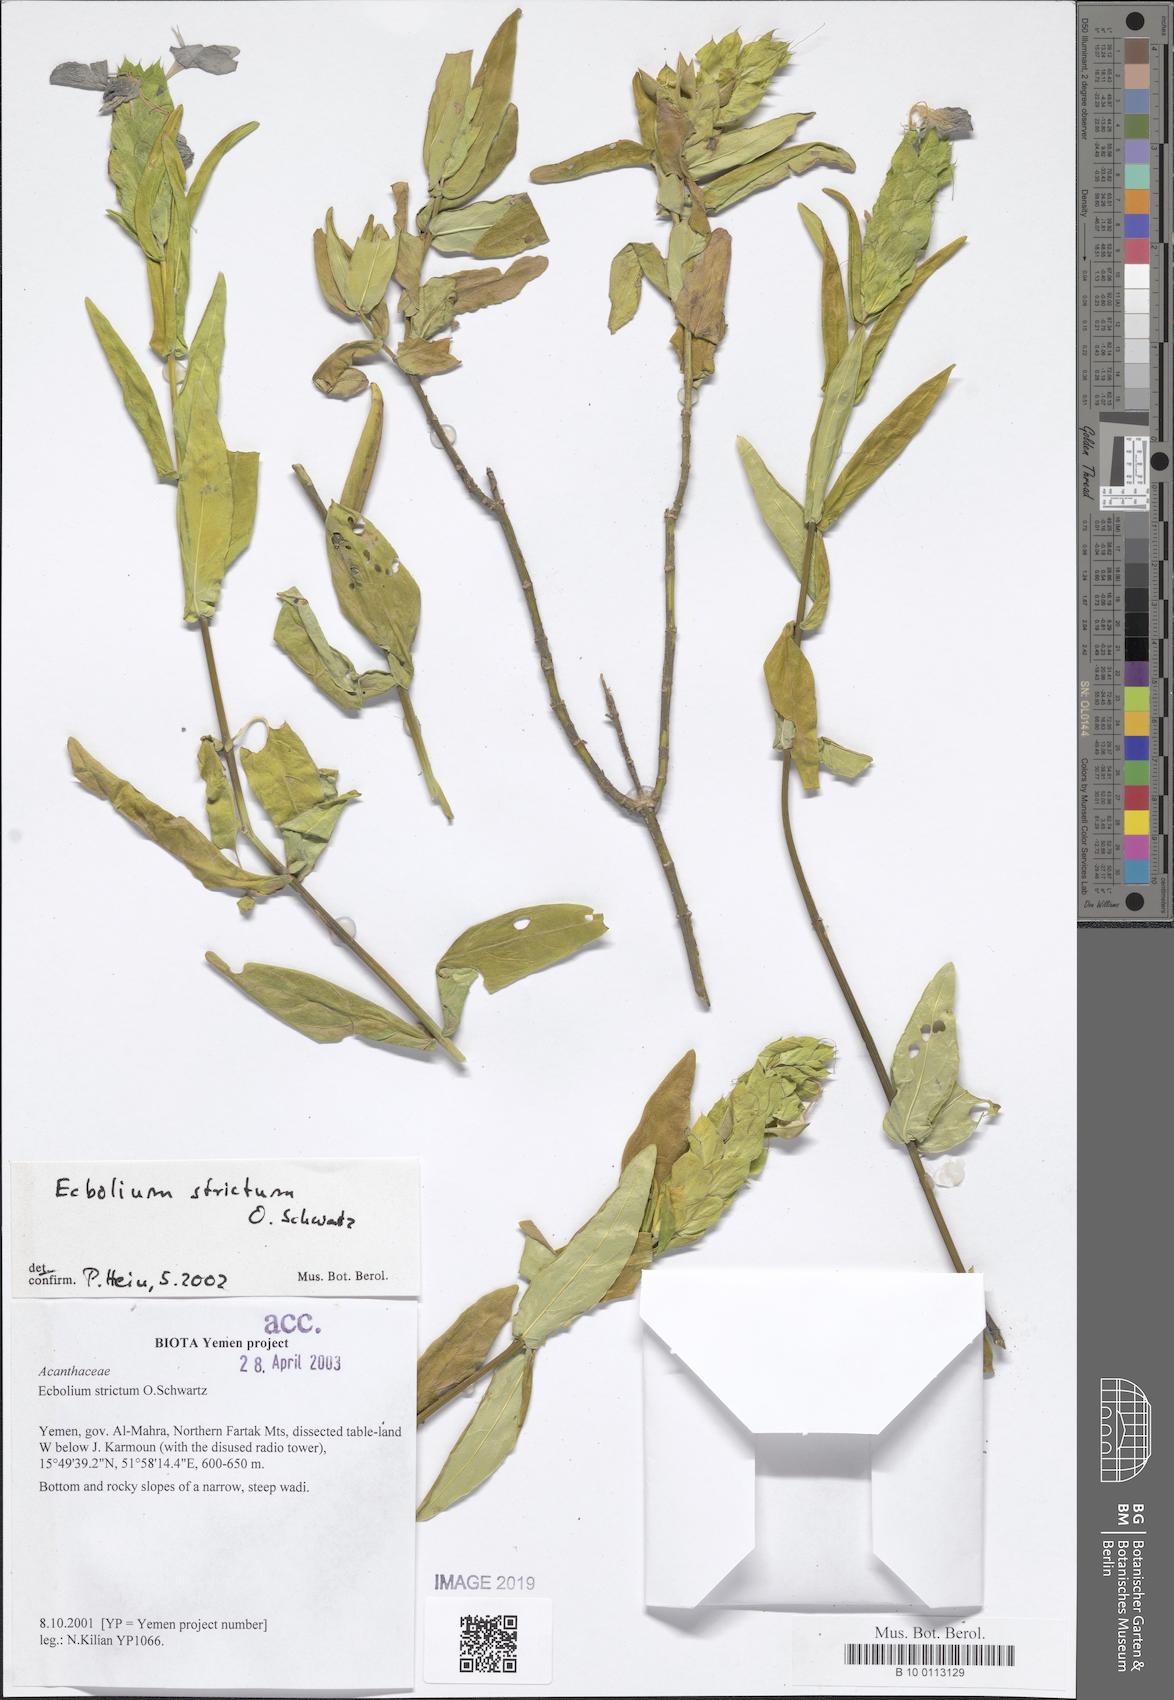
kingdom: Plantae
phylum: Tracheophyta
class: Magnoliopsida
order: Lamiales
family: Acanthaceae
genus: Ecbolium
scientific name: Ecbolium strictum
